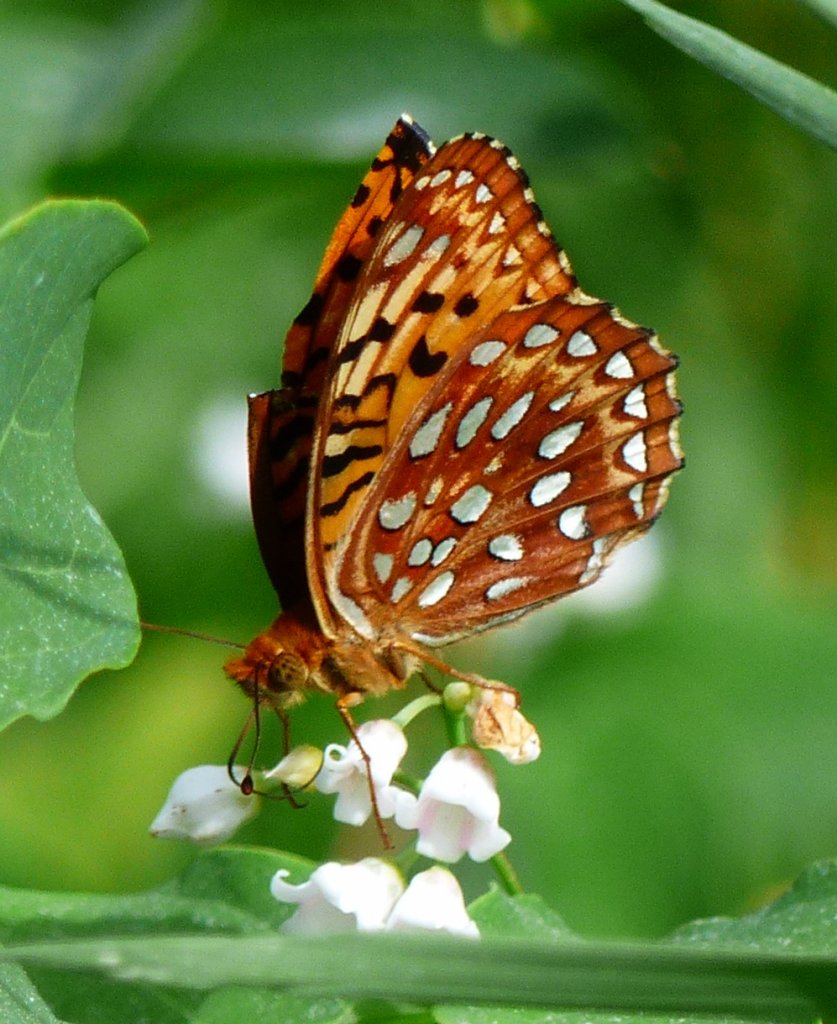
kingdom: Animalia
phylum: Arthropoda
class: Insecta
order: Lepidoptera
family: Nymphalidae
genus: Speyeria
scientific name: Speyeria aphrodite
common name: Aphrodite Fritillary
